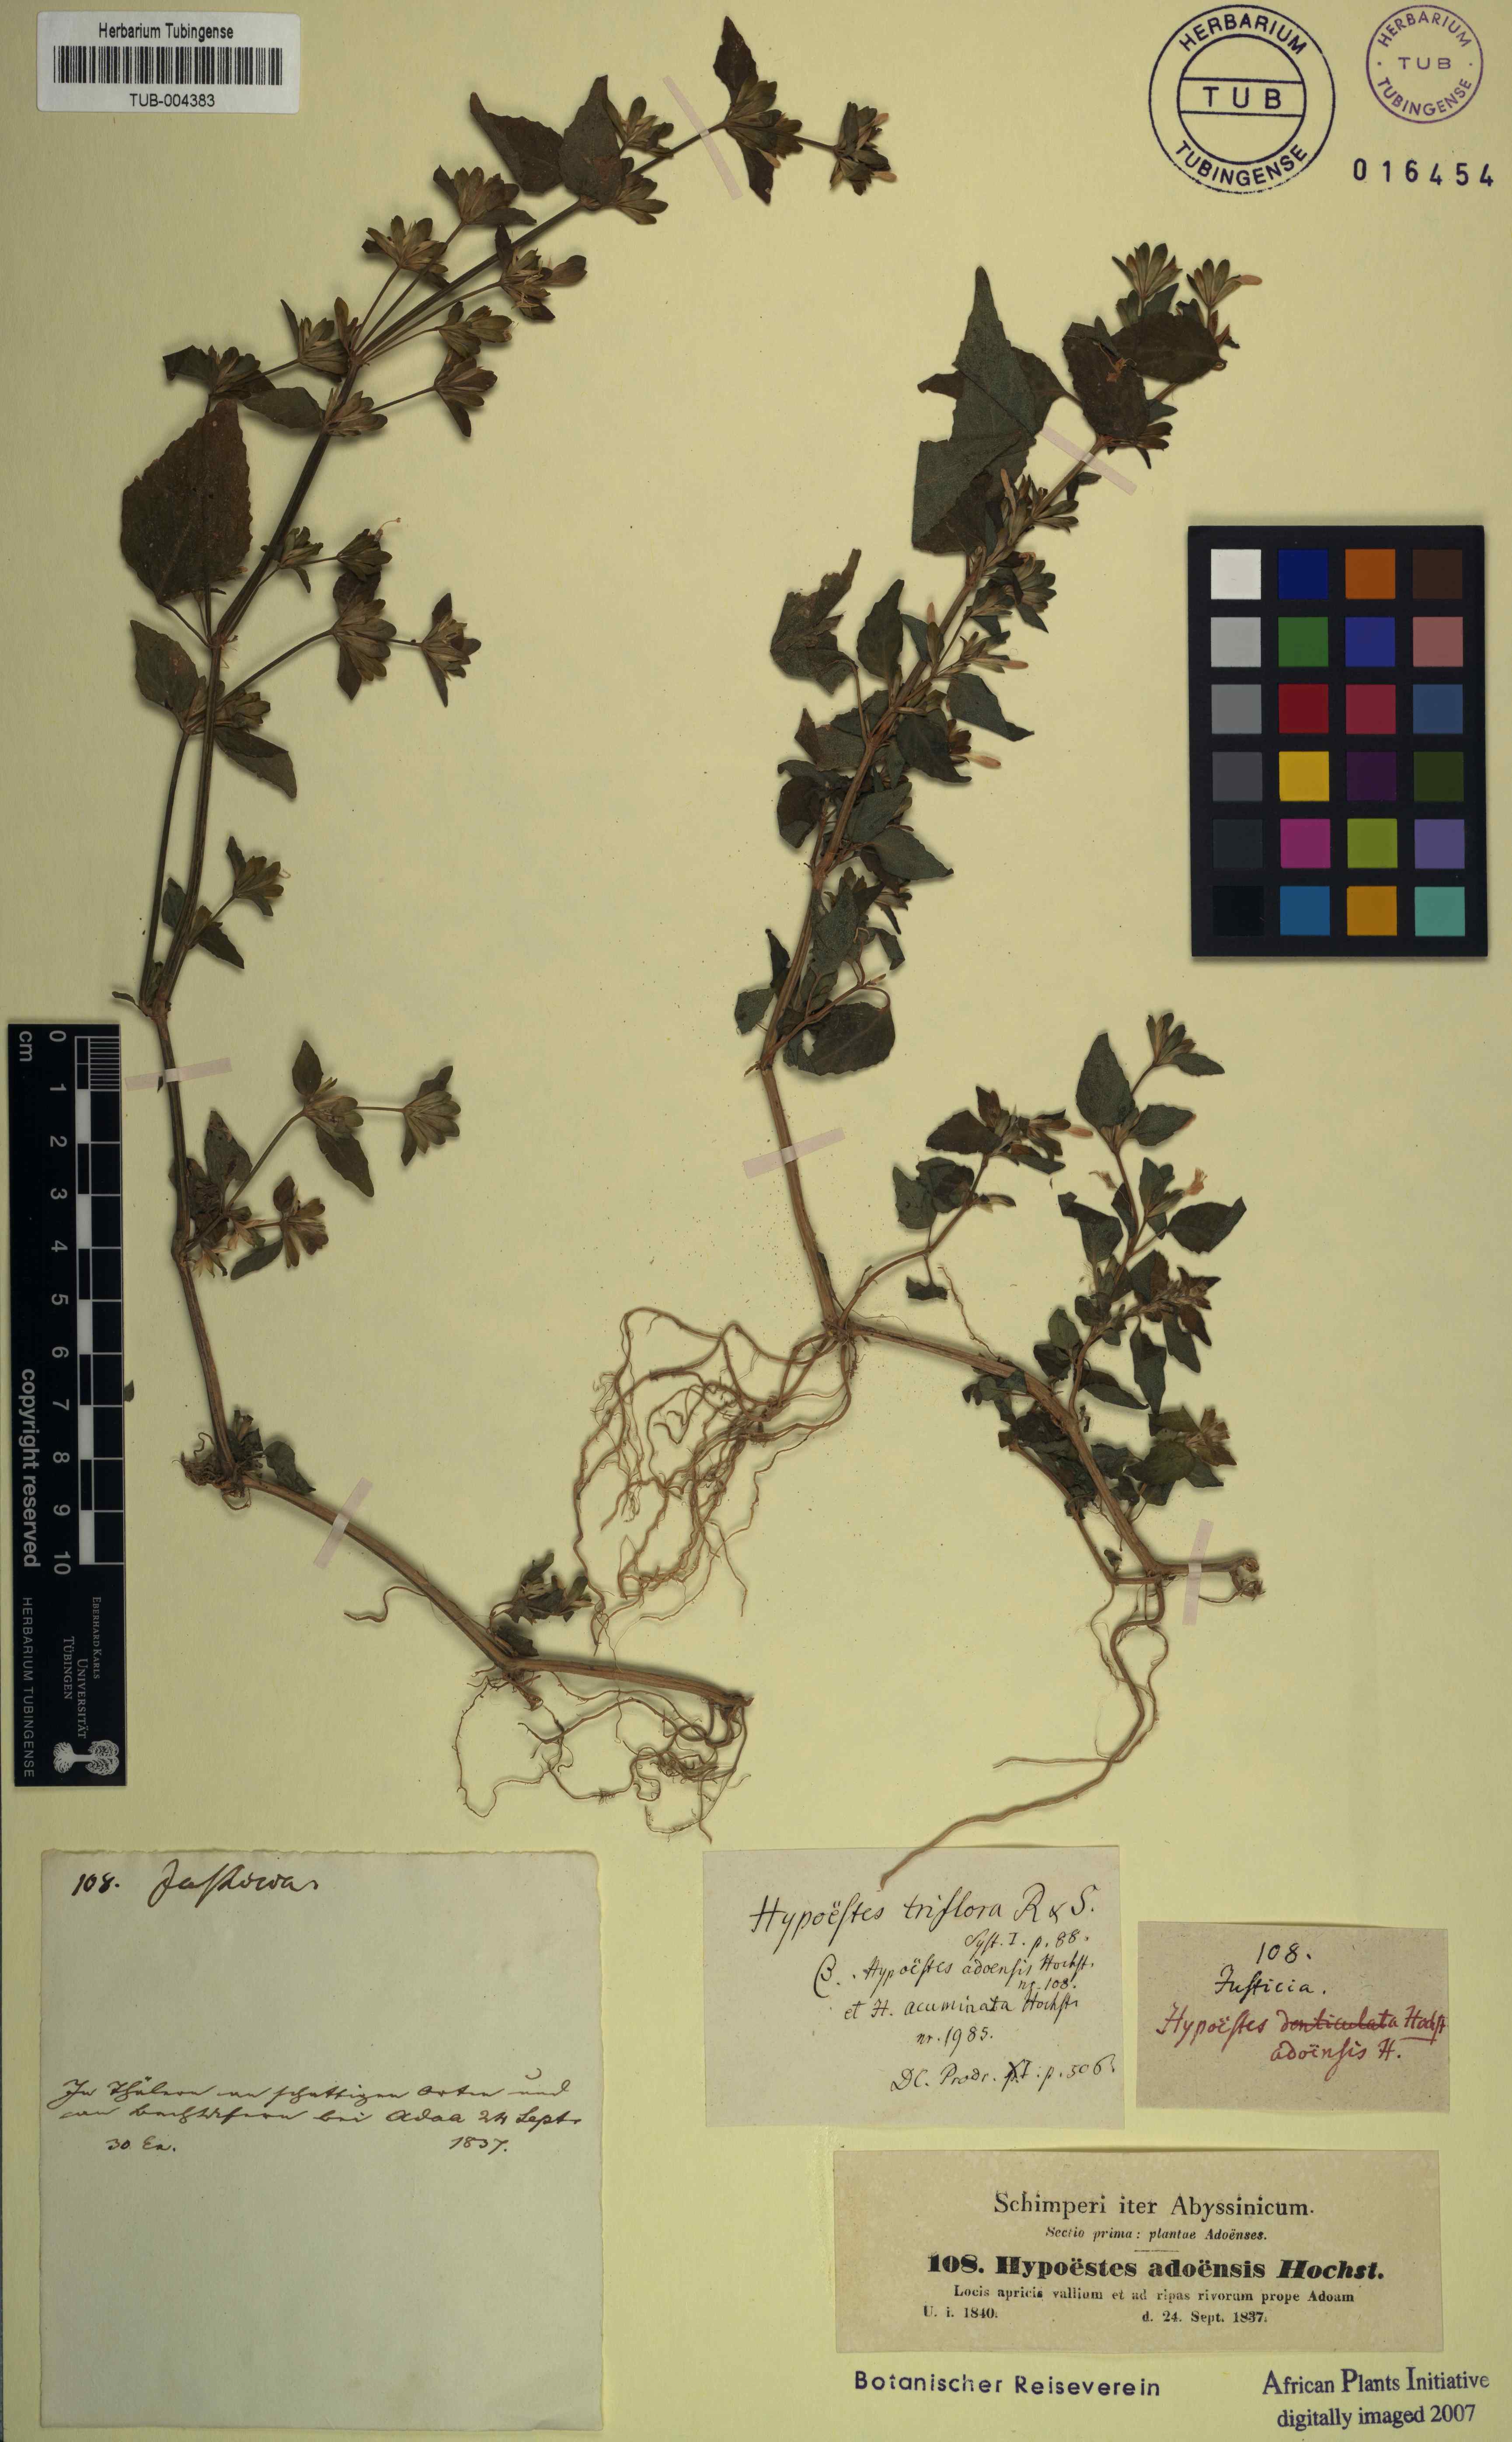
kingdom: Plantae
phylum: Tracheophyta
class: Magnoliopsida
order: Lamiales
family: Acanthaceae
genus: Hypoestes
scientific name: Hypoestes triflora
